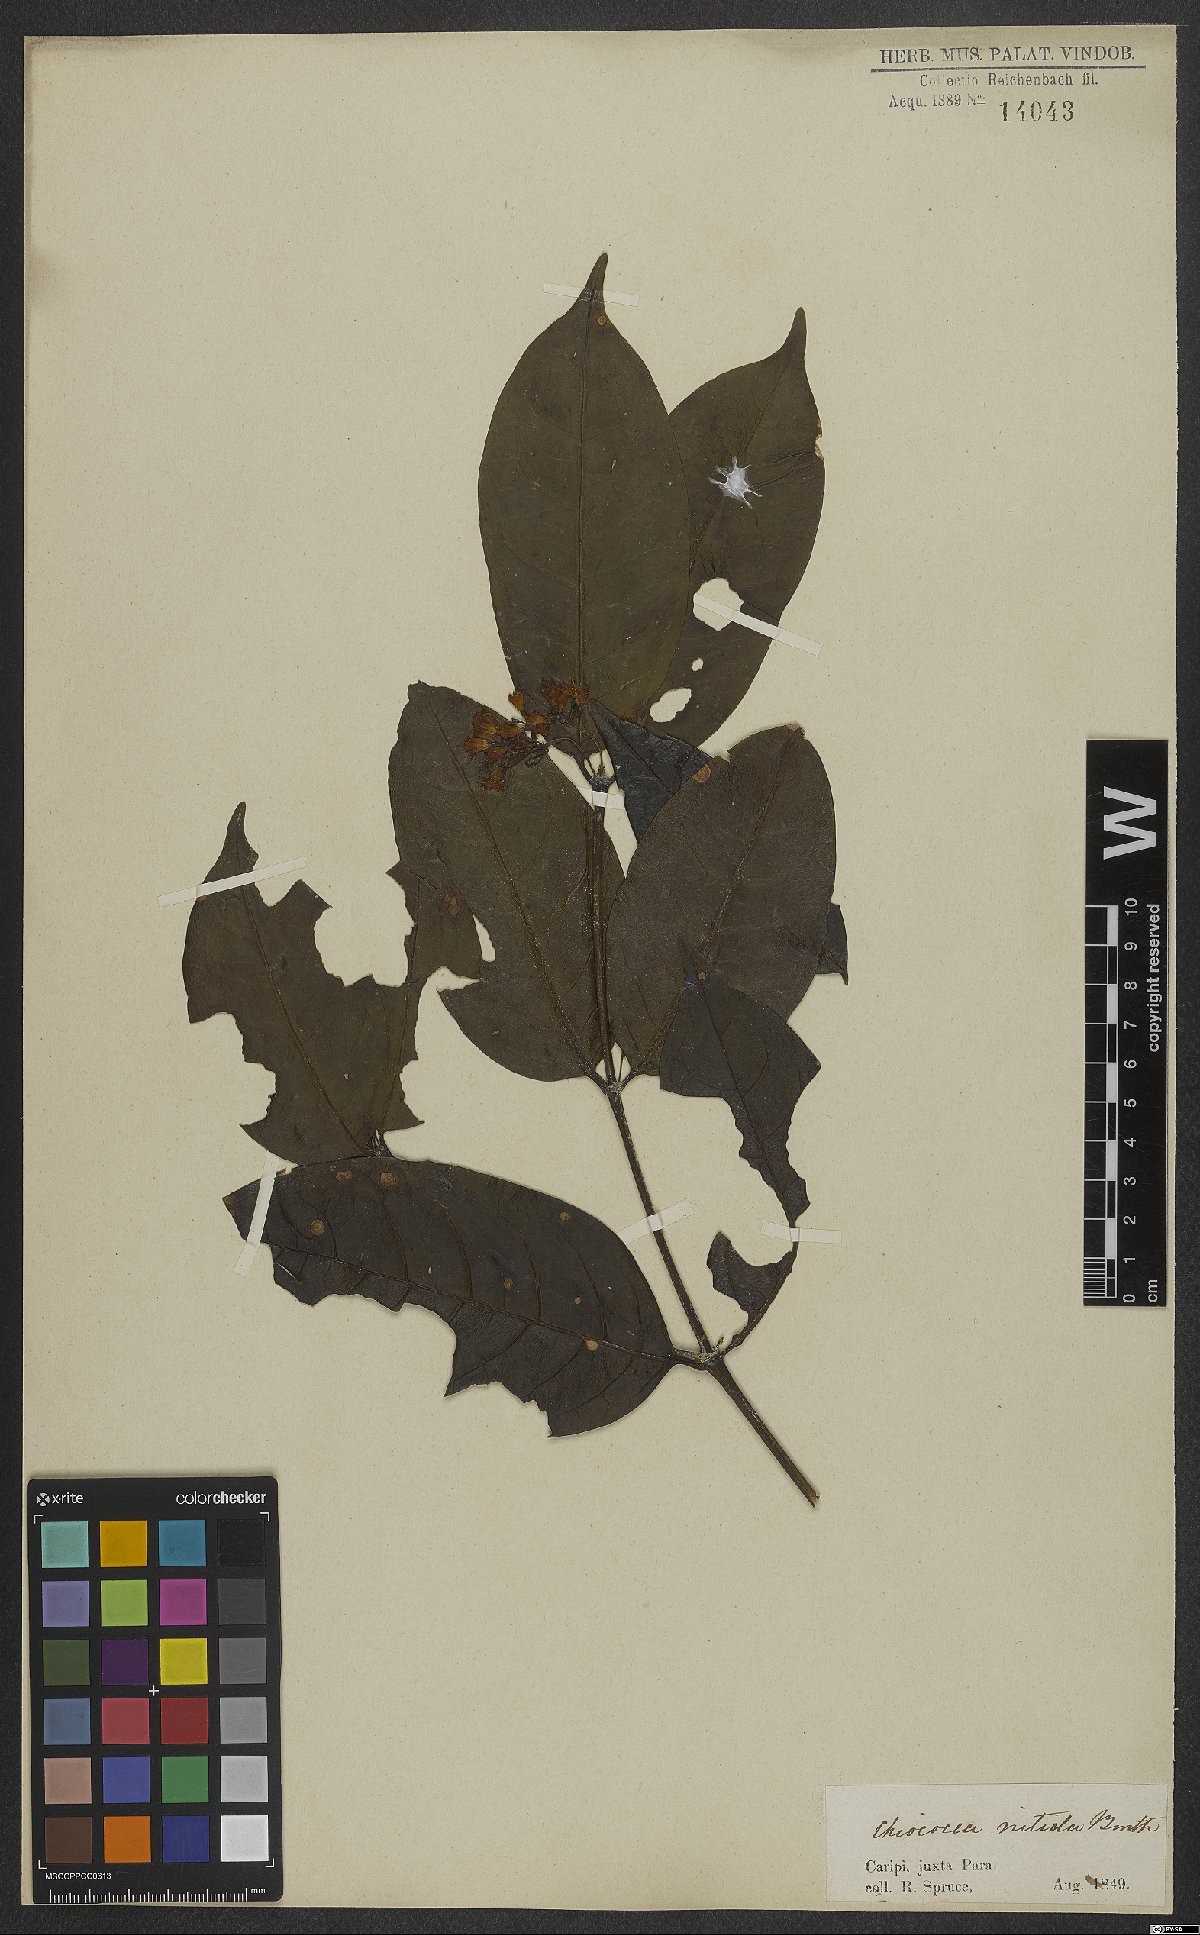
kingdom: Plantae
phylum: Tracheophyta
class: Magnoliopsida
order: Gentianales
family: Rubiaceae
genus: Chiococca
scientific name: Chiococca nitida
